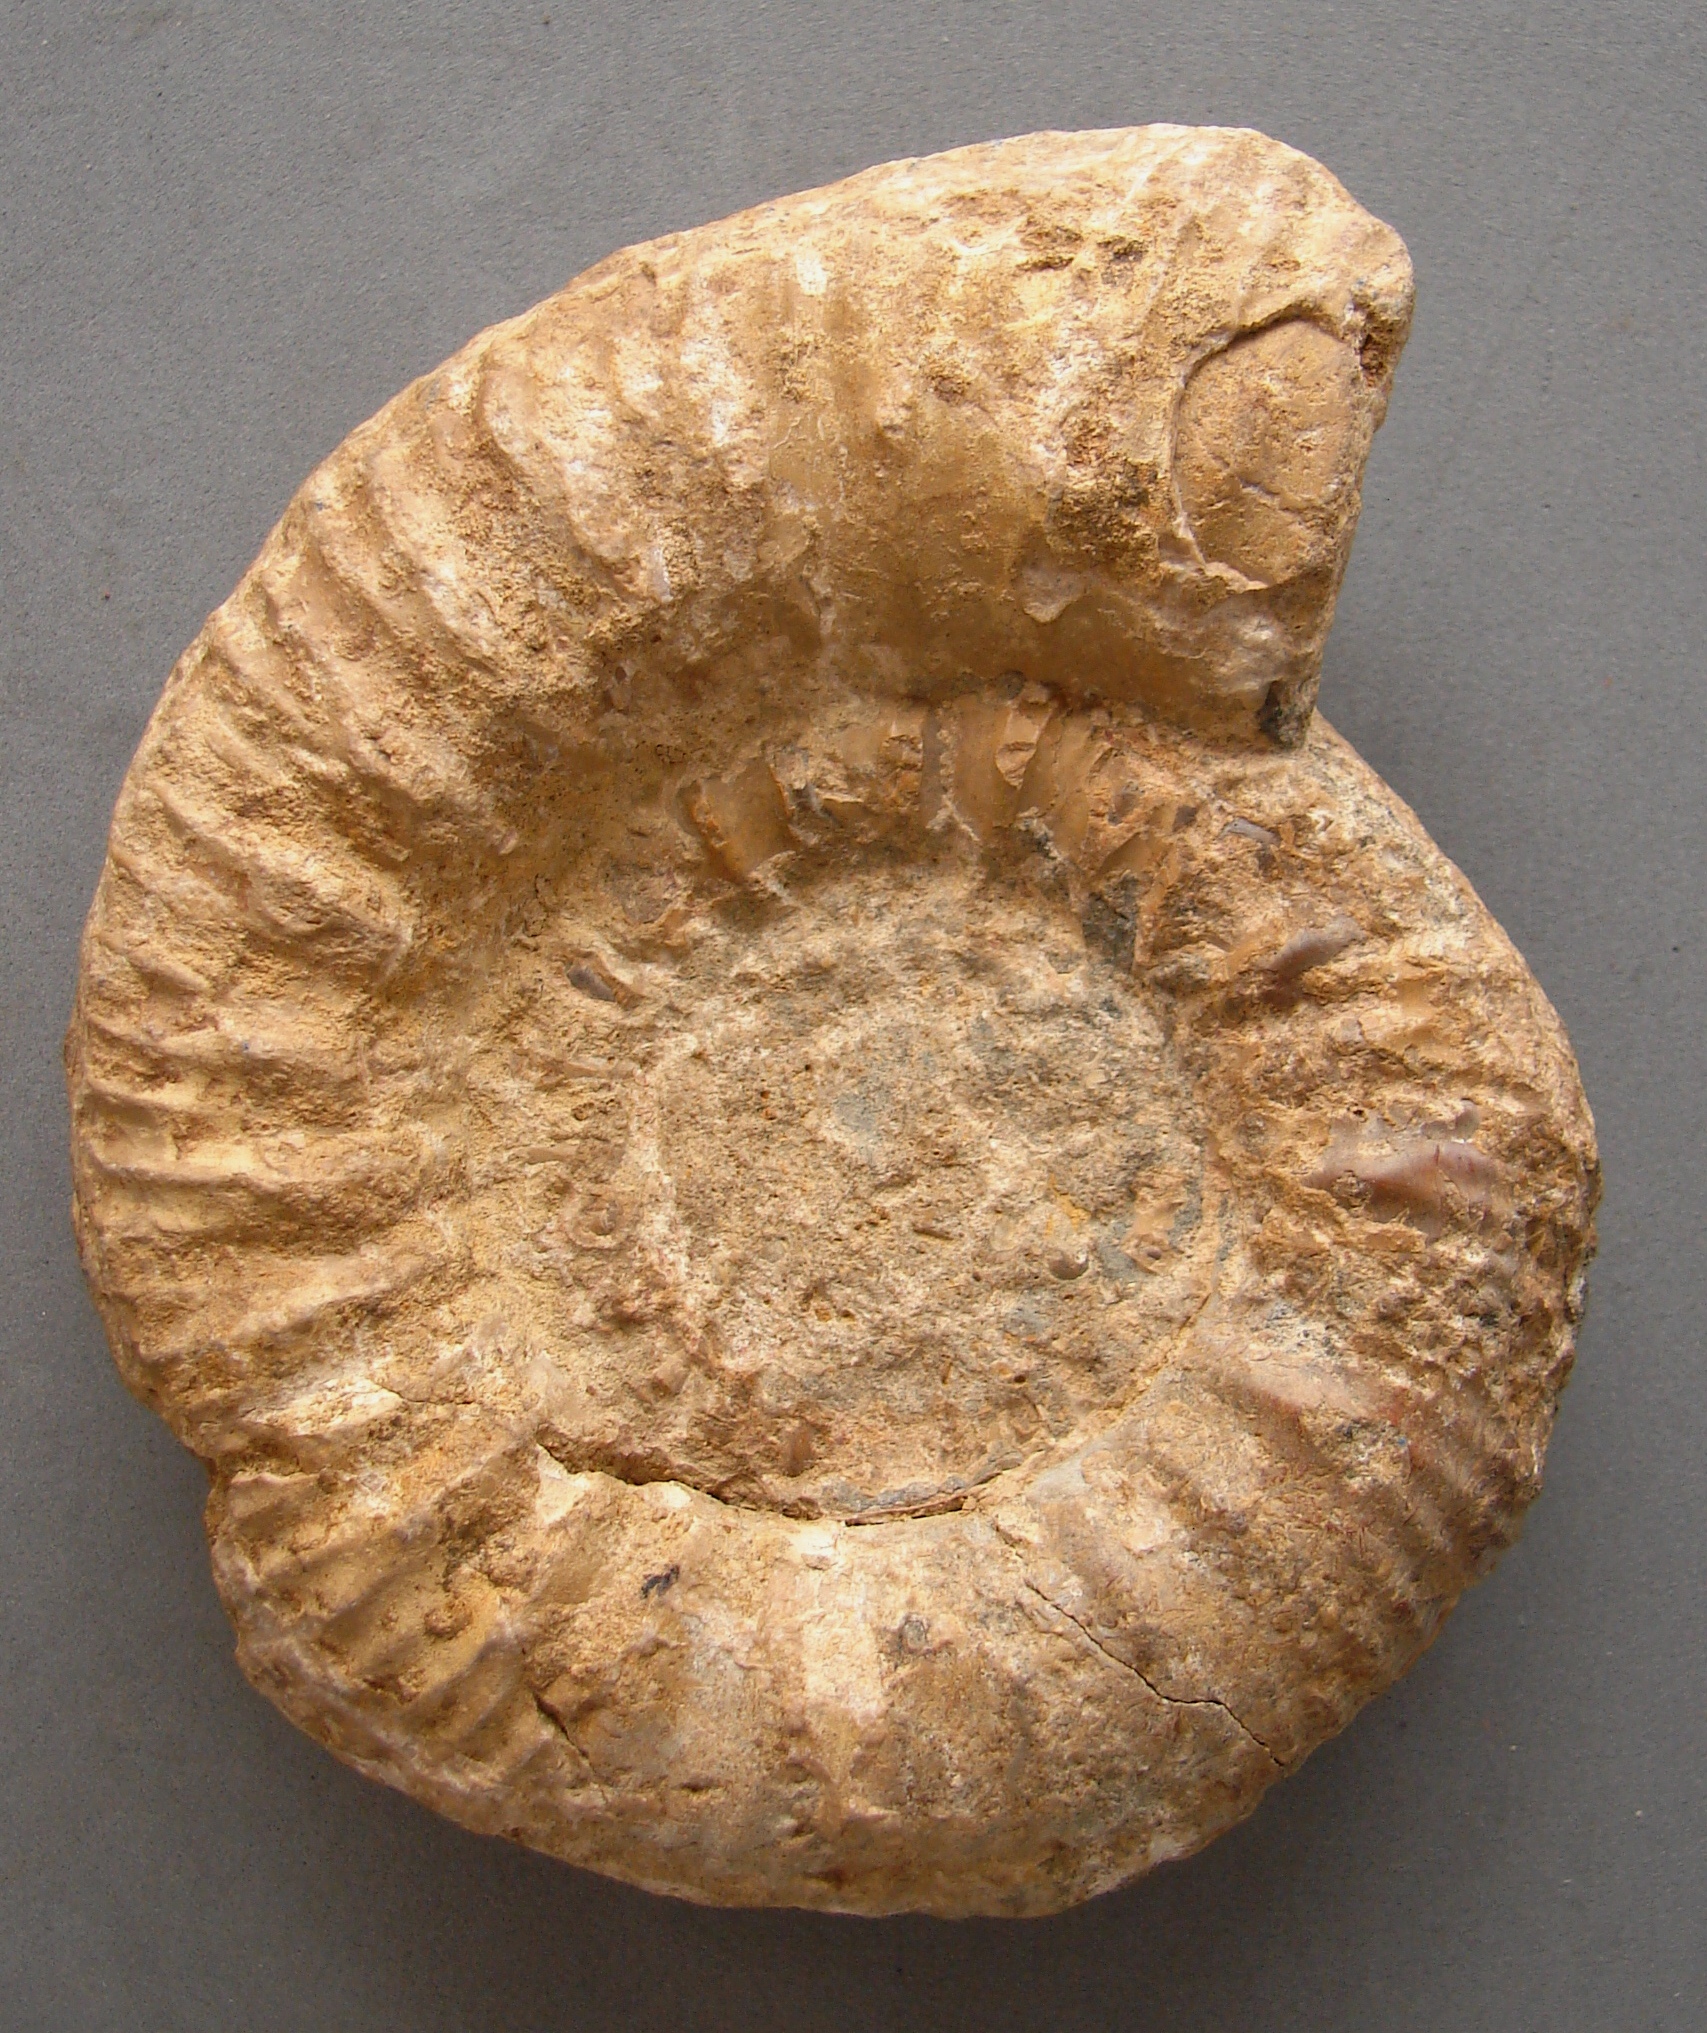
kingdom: Animalia
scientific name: Animalia
